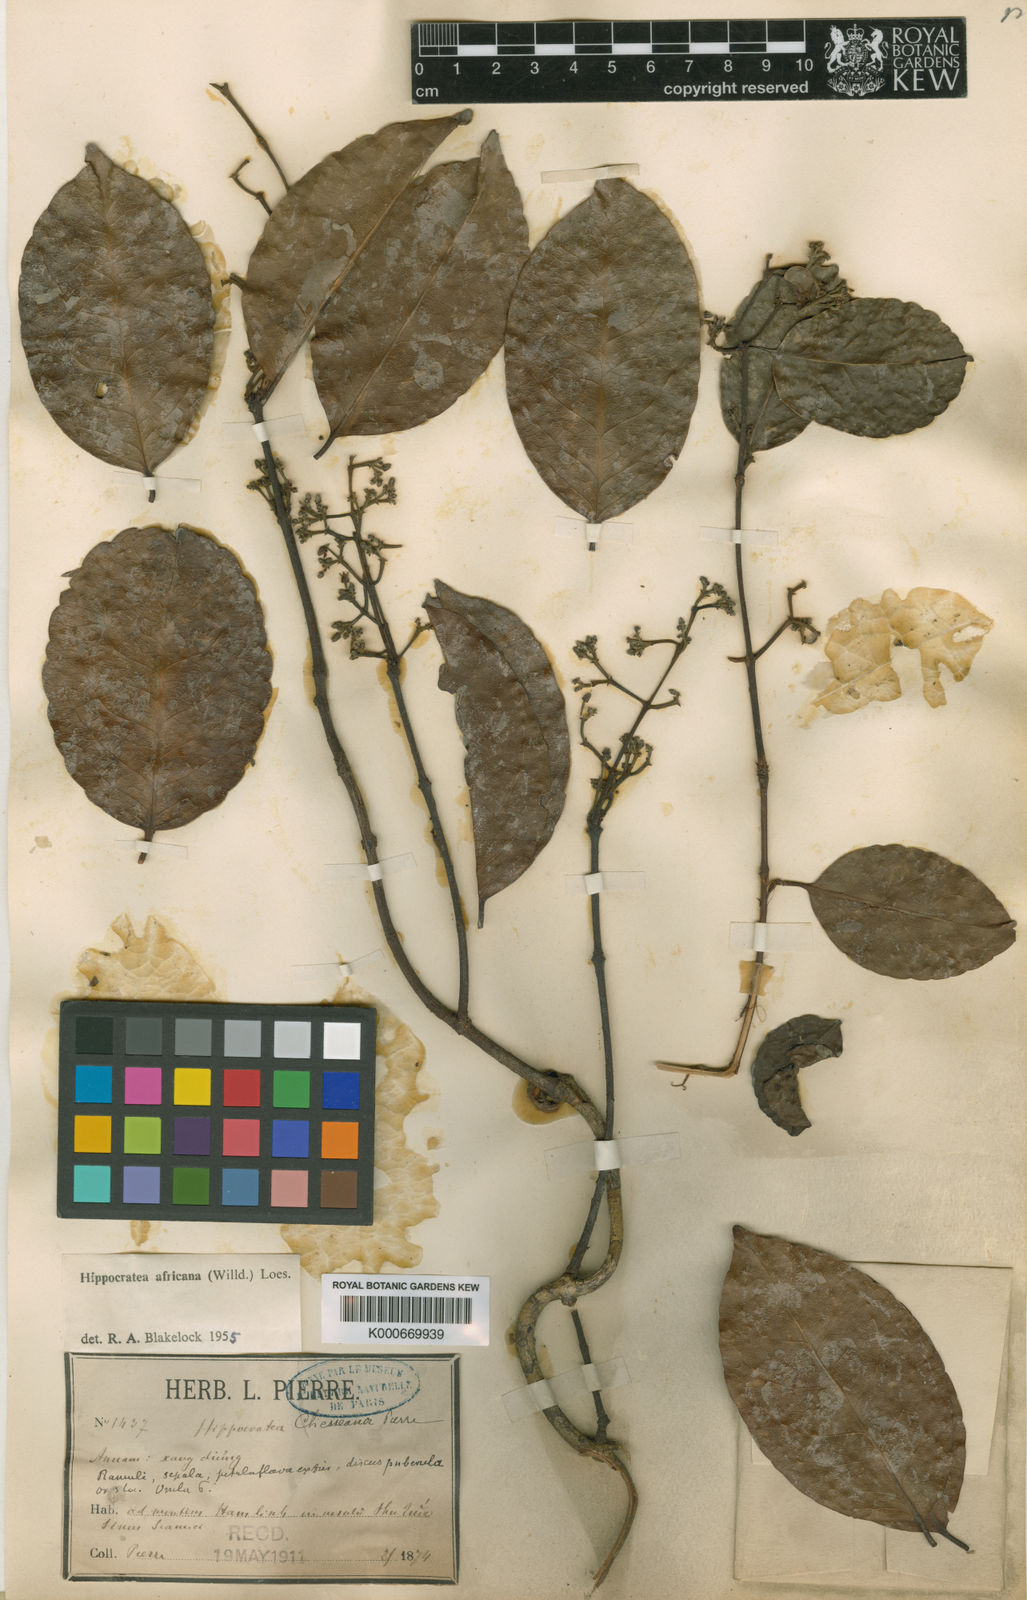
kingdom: Plantae
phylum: Tracheophyta
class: Magnoliopsida
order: Celastrales
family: Celastraceae
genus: Loeseneriella
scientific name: Loeseneriella
